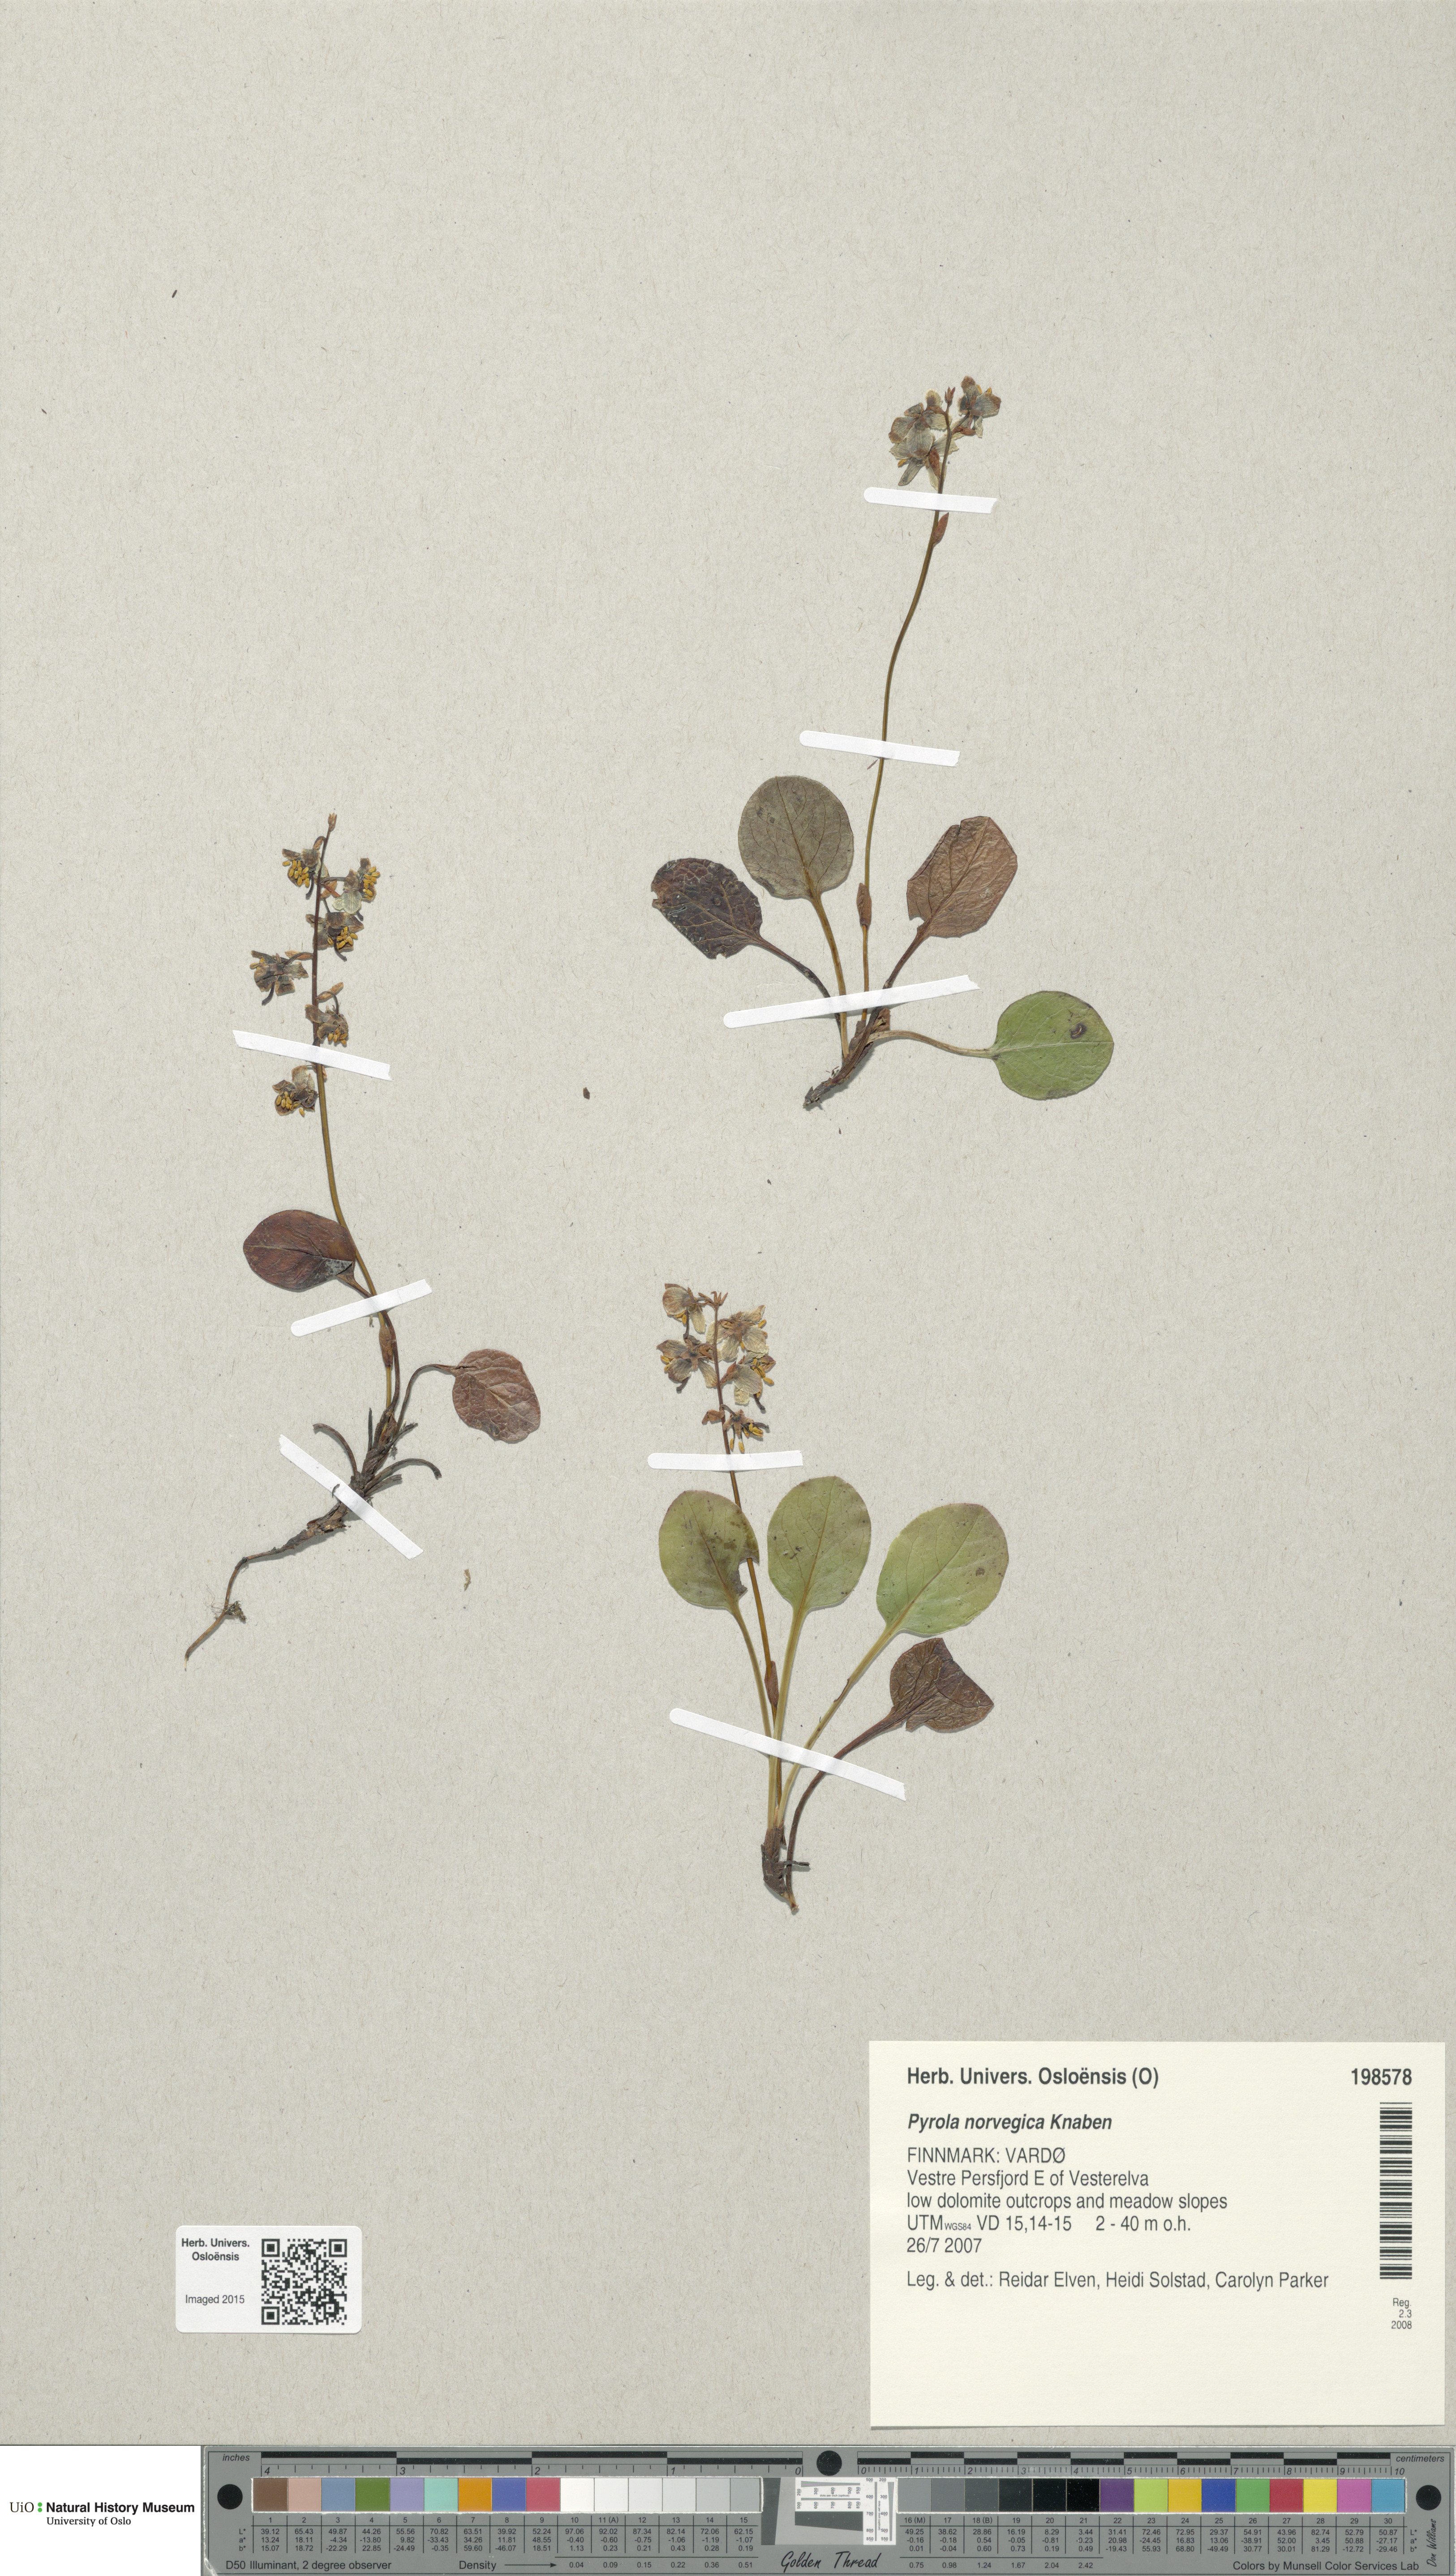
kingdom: Plantae
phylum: Tracheophyta
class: Magnoliopsida
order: Ericales
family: Ericaceae
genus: Pyrola
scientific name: Pyrola rotundifolia
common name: Round-leaved wintergreen
